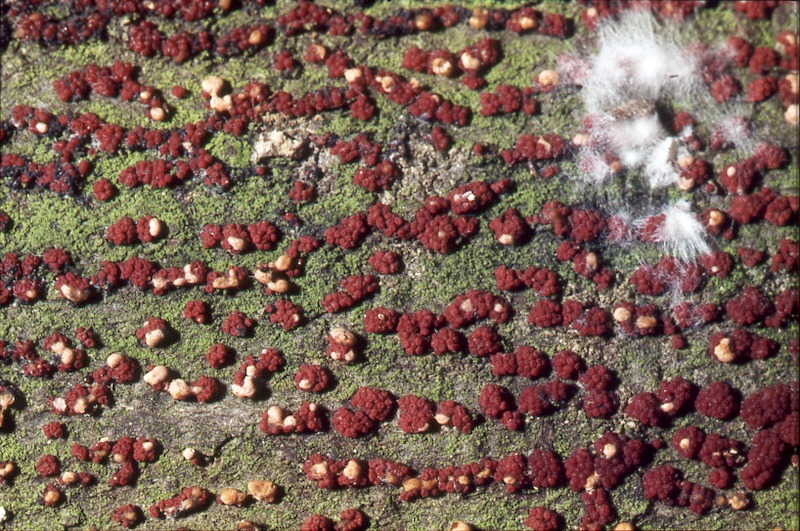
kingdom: Plantae
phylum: Tracheophyta
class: Magnoliopsida
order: Fagales
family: Fagaceae
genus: Fagus
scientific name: Fagus sylvatica
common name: Beech
